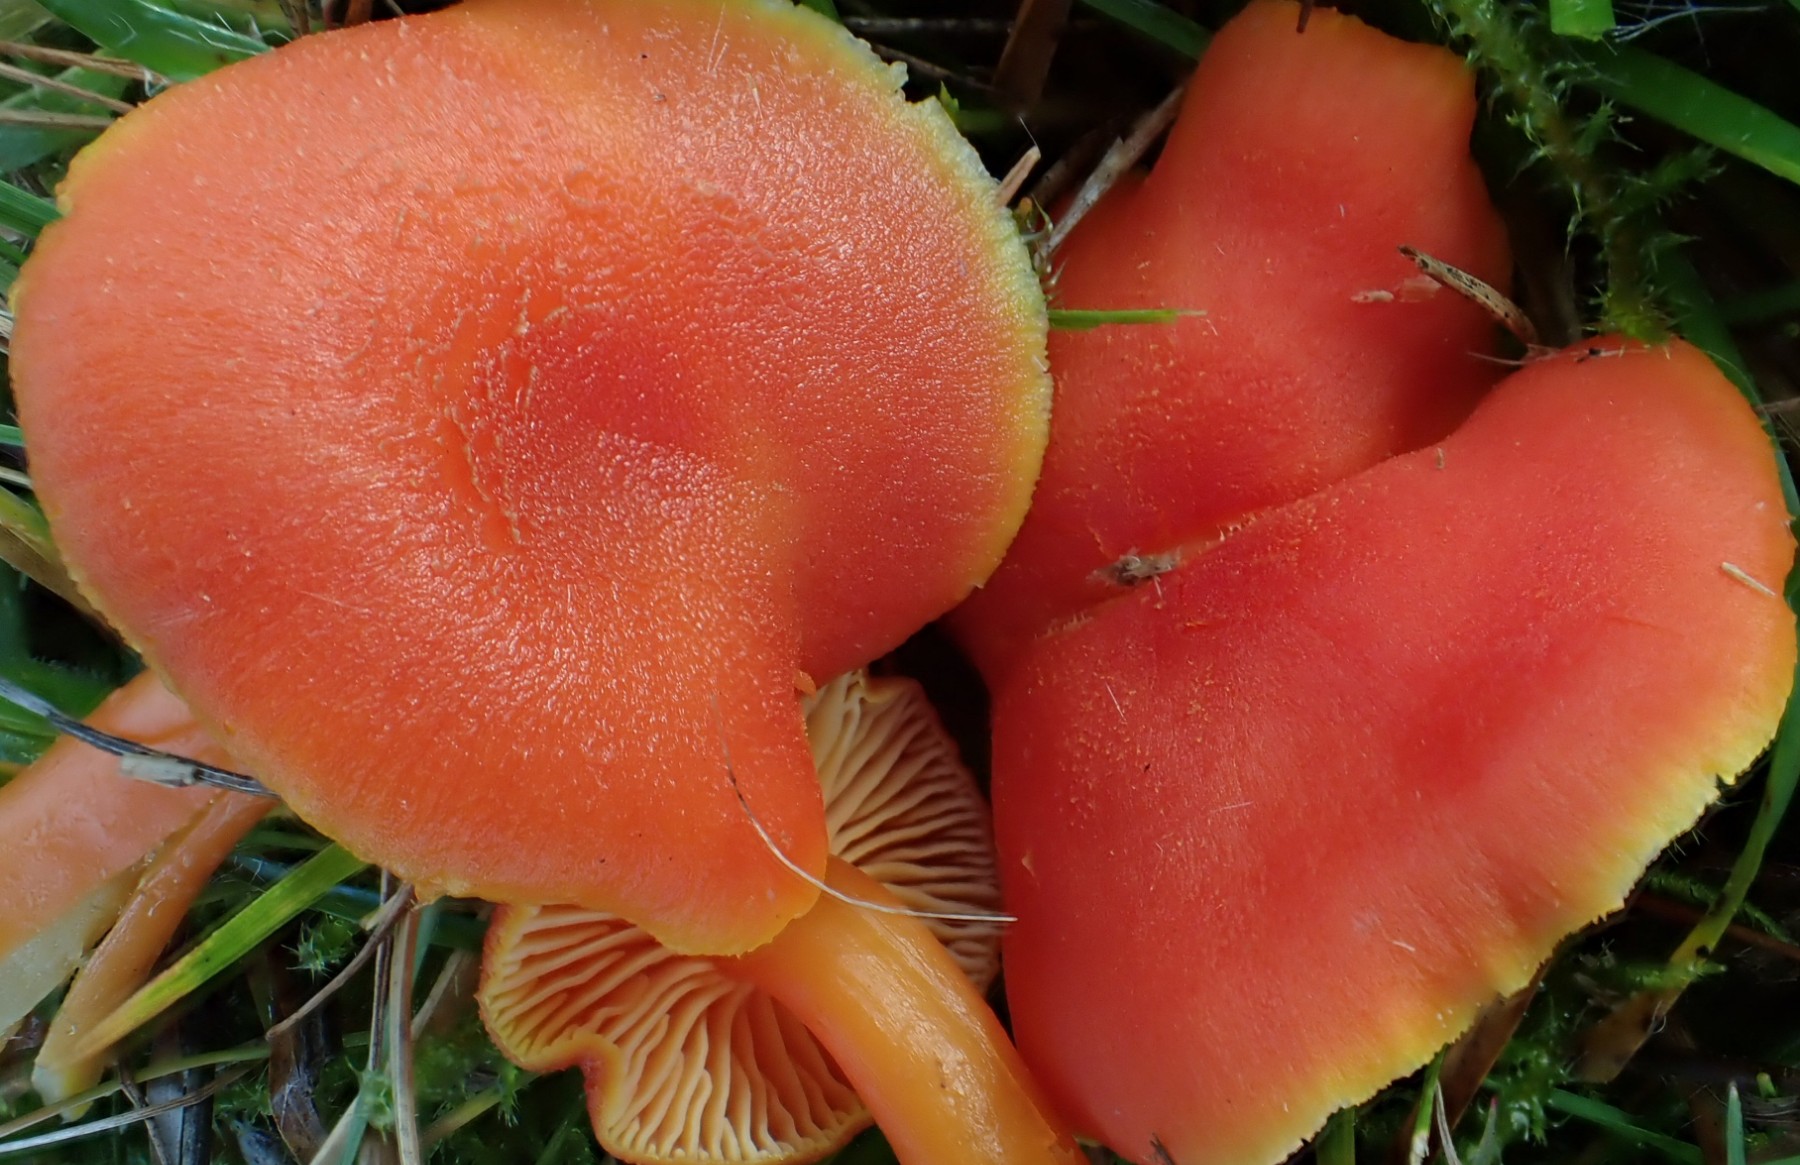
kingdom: Fungi
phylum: Basidiomycota
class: Agaricomycetes
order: Agaricales
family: Hygrophoraceae
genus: Hygrocybe
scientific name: Hygrocybe miniata
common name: mønje-vokshat
